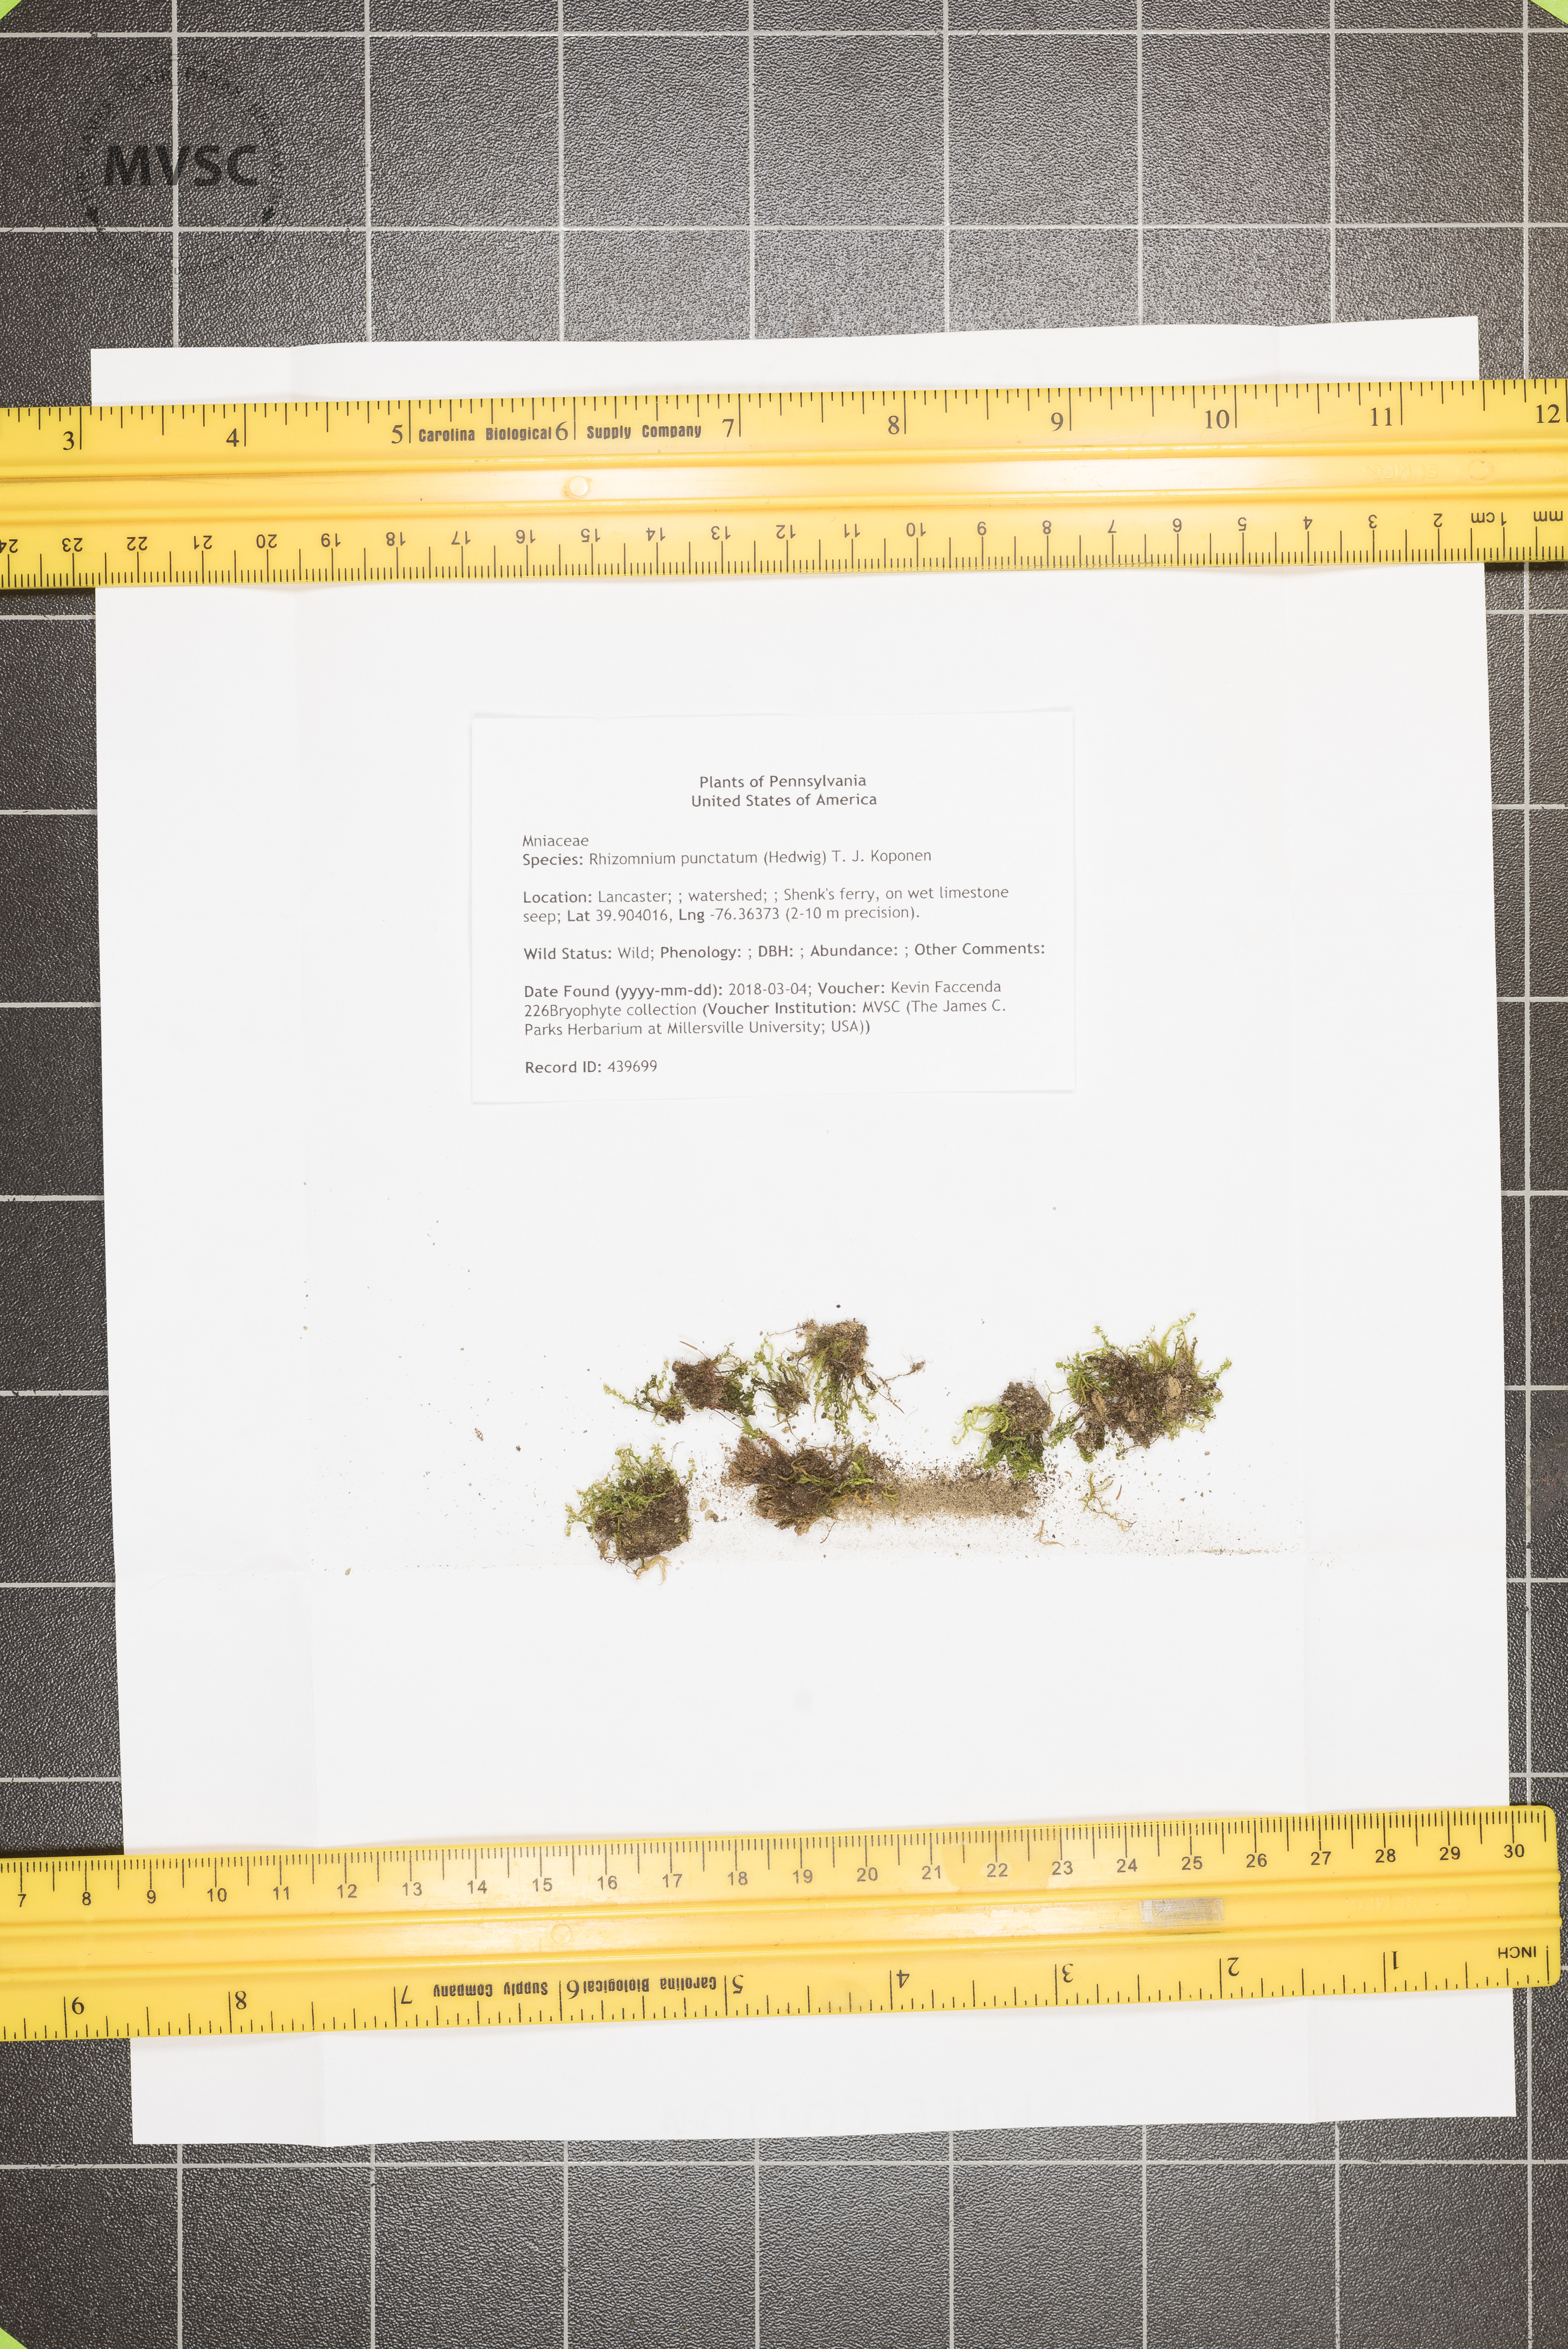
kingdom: Plantae
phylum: Bryophyta
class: Bryopsida
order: Bryales
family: Mniaceae
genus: Rhizomnium
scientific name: Rhizomnium punctatum
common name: Dotted leafy moss
